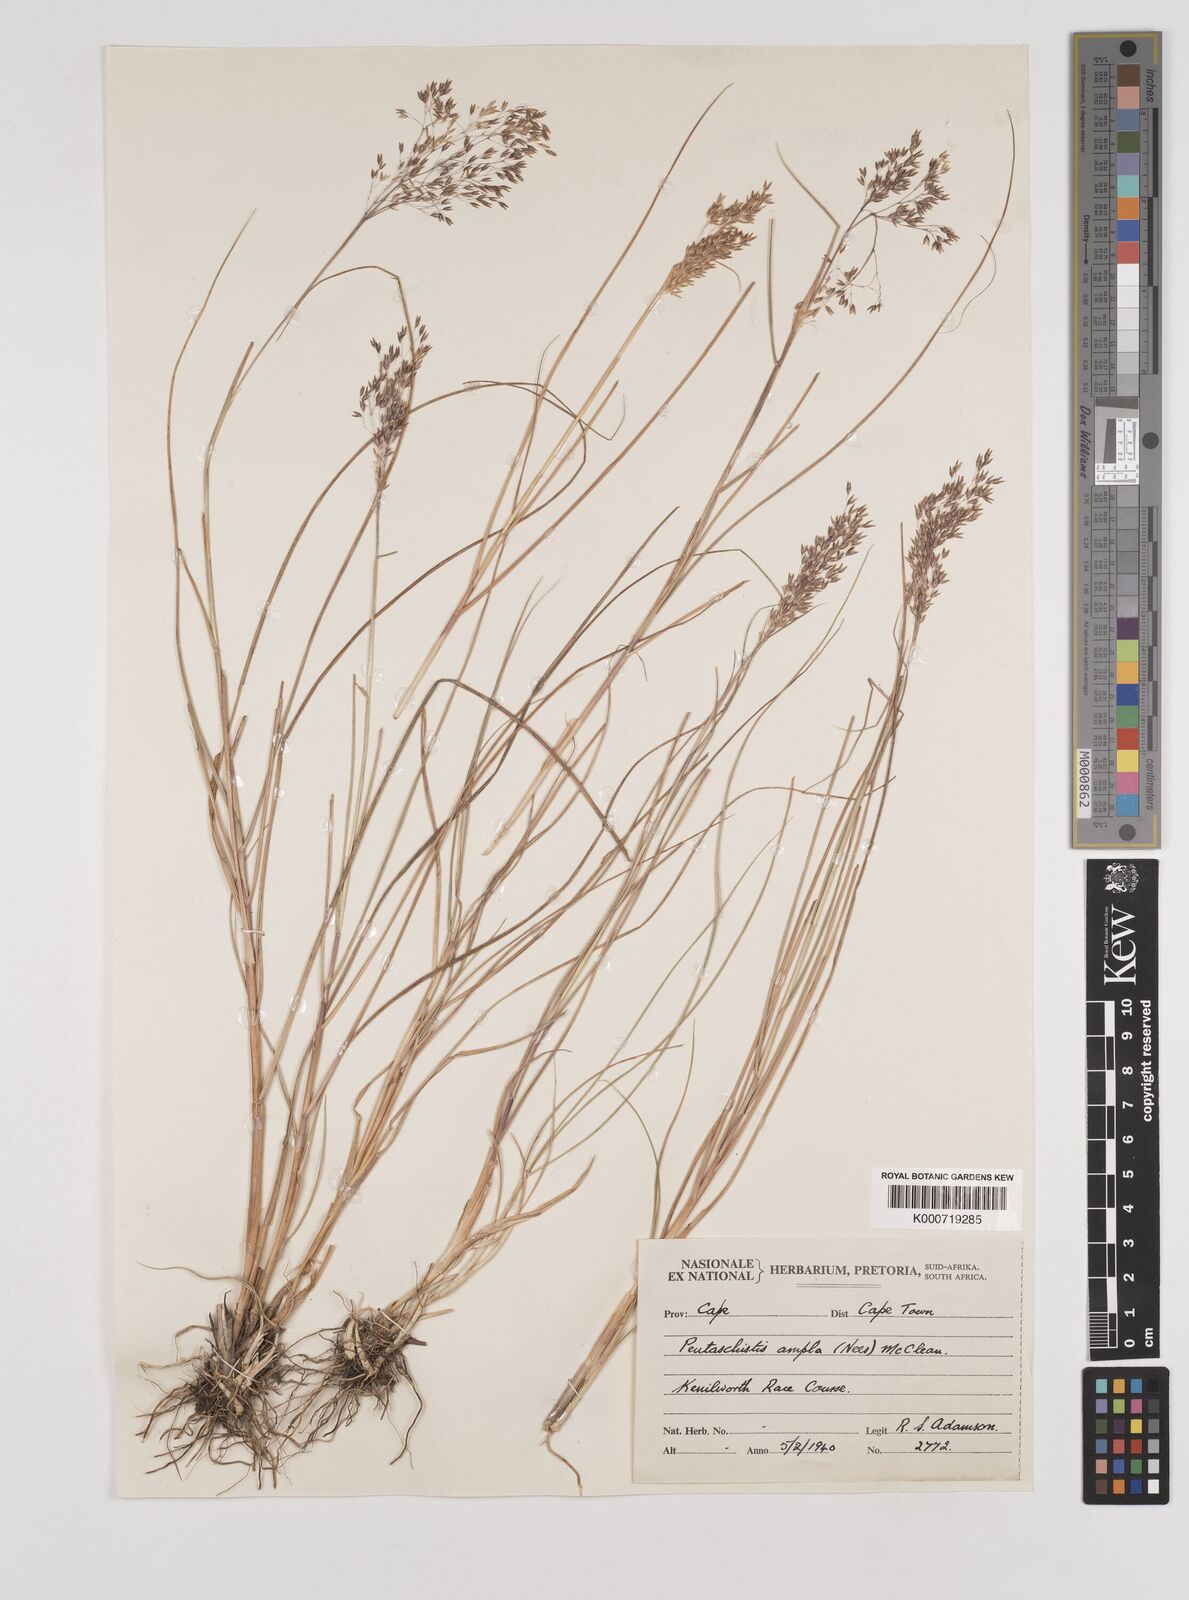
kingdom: Plantae
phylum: Tracheophyta
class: Liliopsida
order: Poales
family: Poaceae
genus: Pentameris
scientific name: Pentameris ampla
